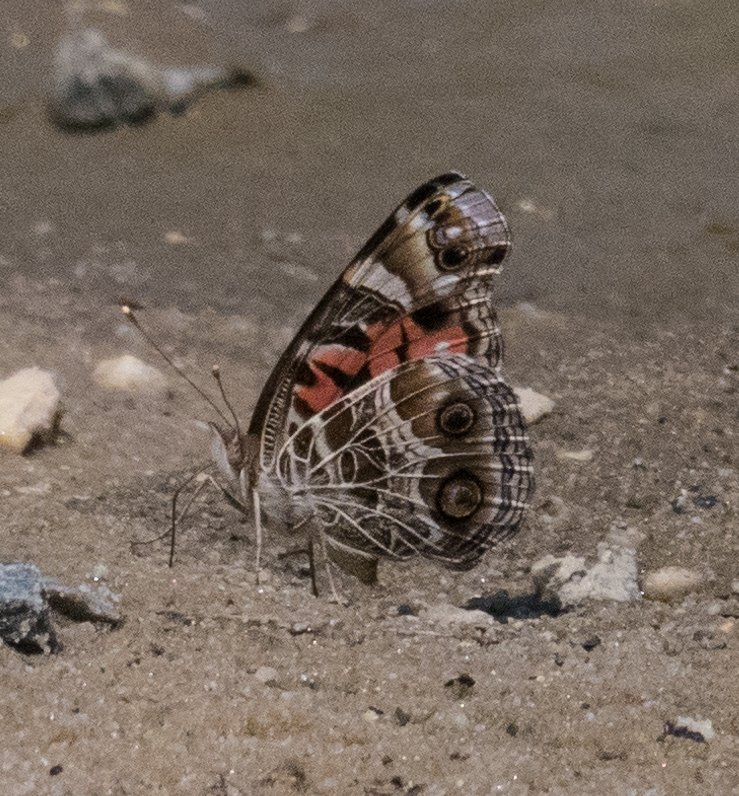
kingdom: Animalia
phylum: Arthropoda
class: Insecta
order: Lepidoptera
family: Nymphalidae
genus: Vanessa
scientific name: Vanessa virginiensis
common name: American Lady
